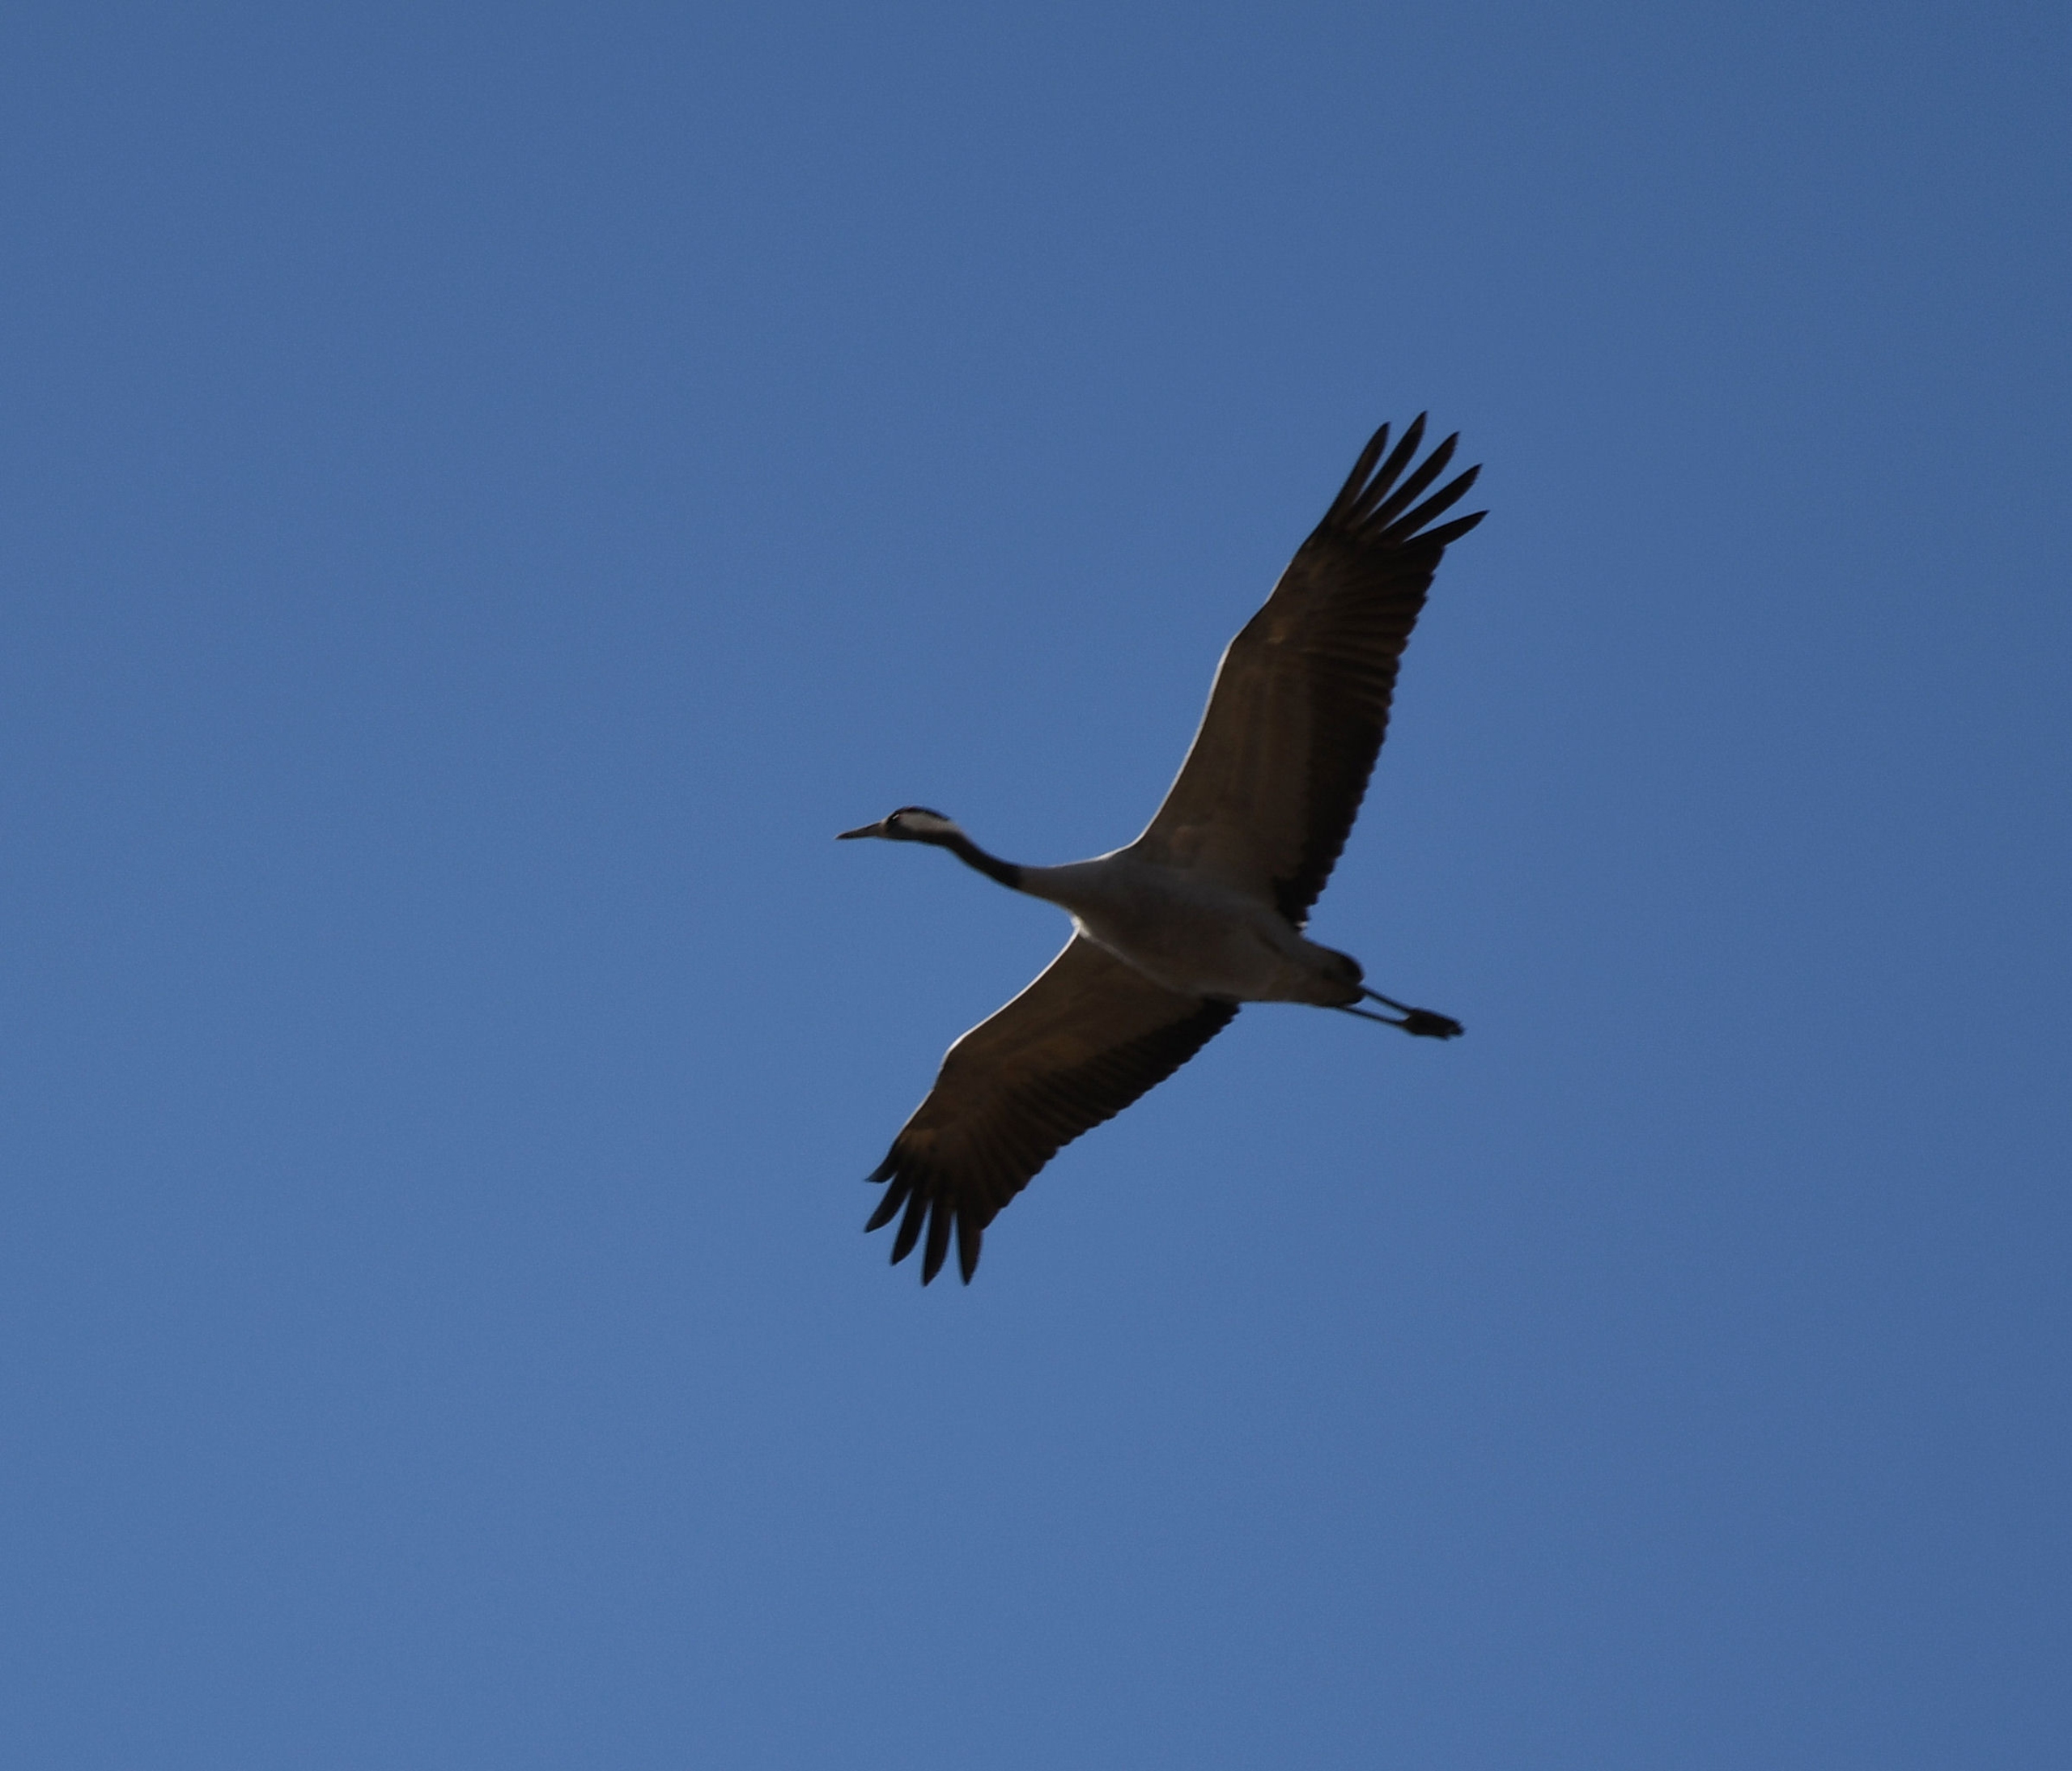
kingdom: Animalia
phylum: Chordata
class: Aves
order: Gruiformes
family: Gruidae
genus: Grus
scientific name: Grus grus
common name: Trane
